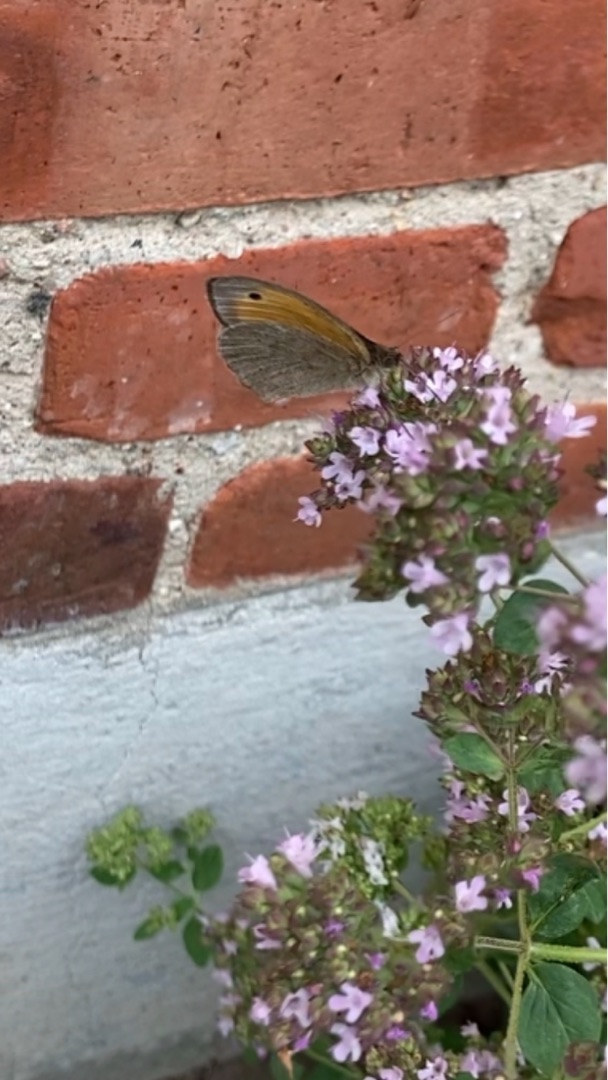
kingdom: Animalia
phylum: Arthropoda
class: Insecta
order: Lepidoptera
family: Nymphalidae
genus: Maniola
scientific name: Maniola jurtina
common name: Græsrandøje
